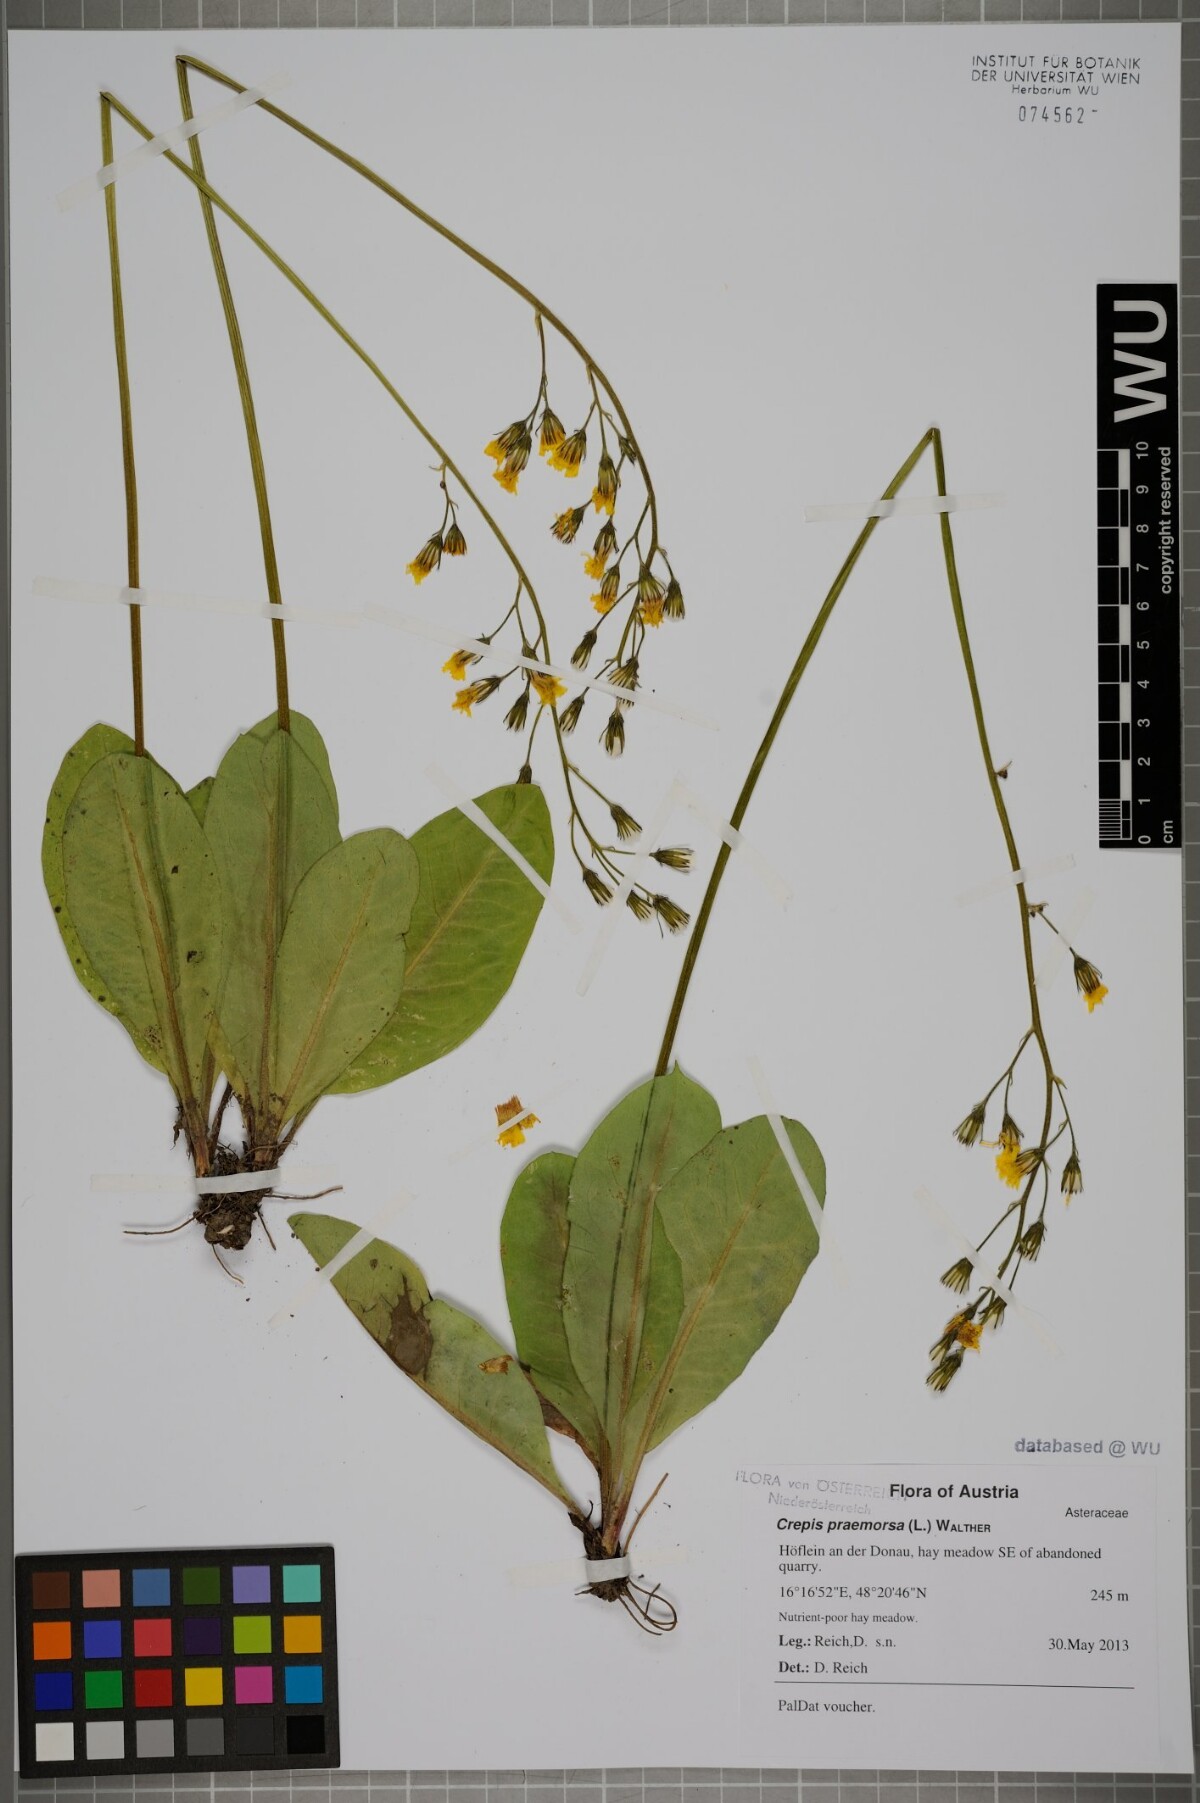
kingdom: Plantae
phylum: Tracheophyta
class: Magnoliopsida
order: Asterales
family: Asteraceae
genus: Hieracium
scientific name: Hieracium racemosum
